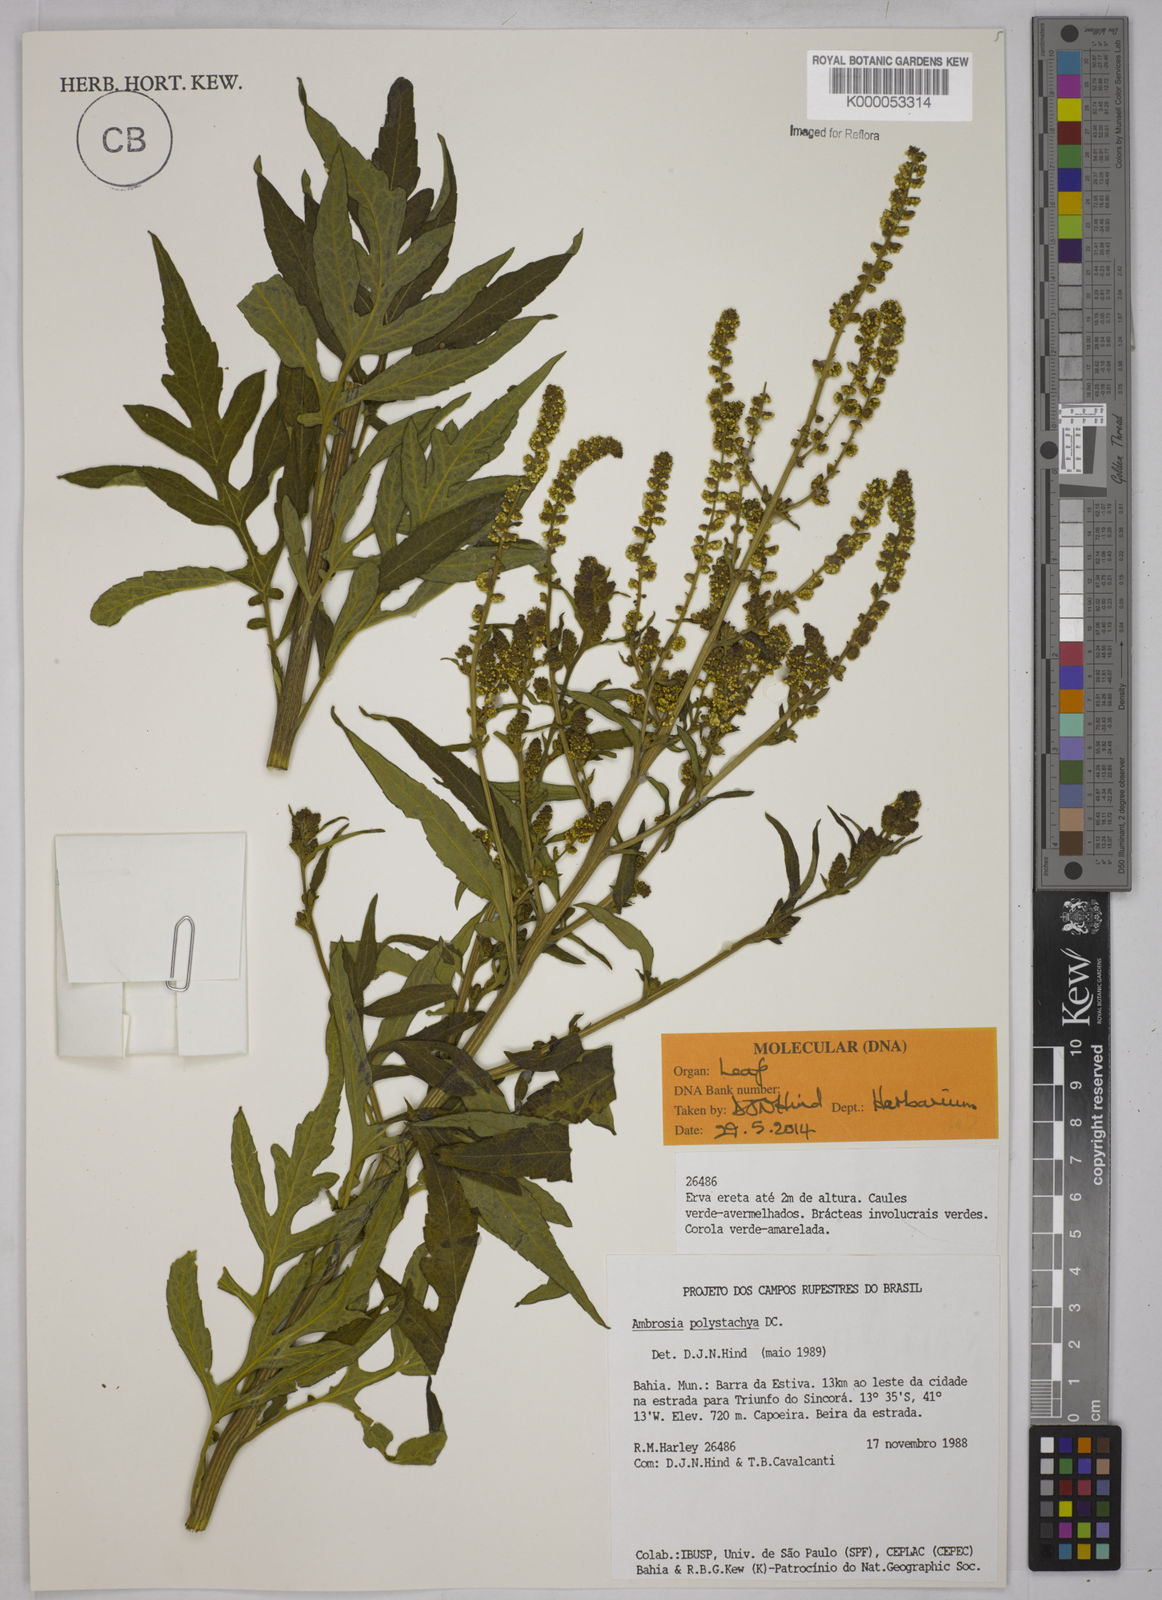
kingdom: Plantae
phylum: Tracheophyta
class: Magnoliopsida
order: Asterales
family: Asteraceae
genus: Ambrosia
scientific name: Ambrosia polystachya
